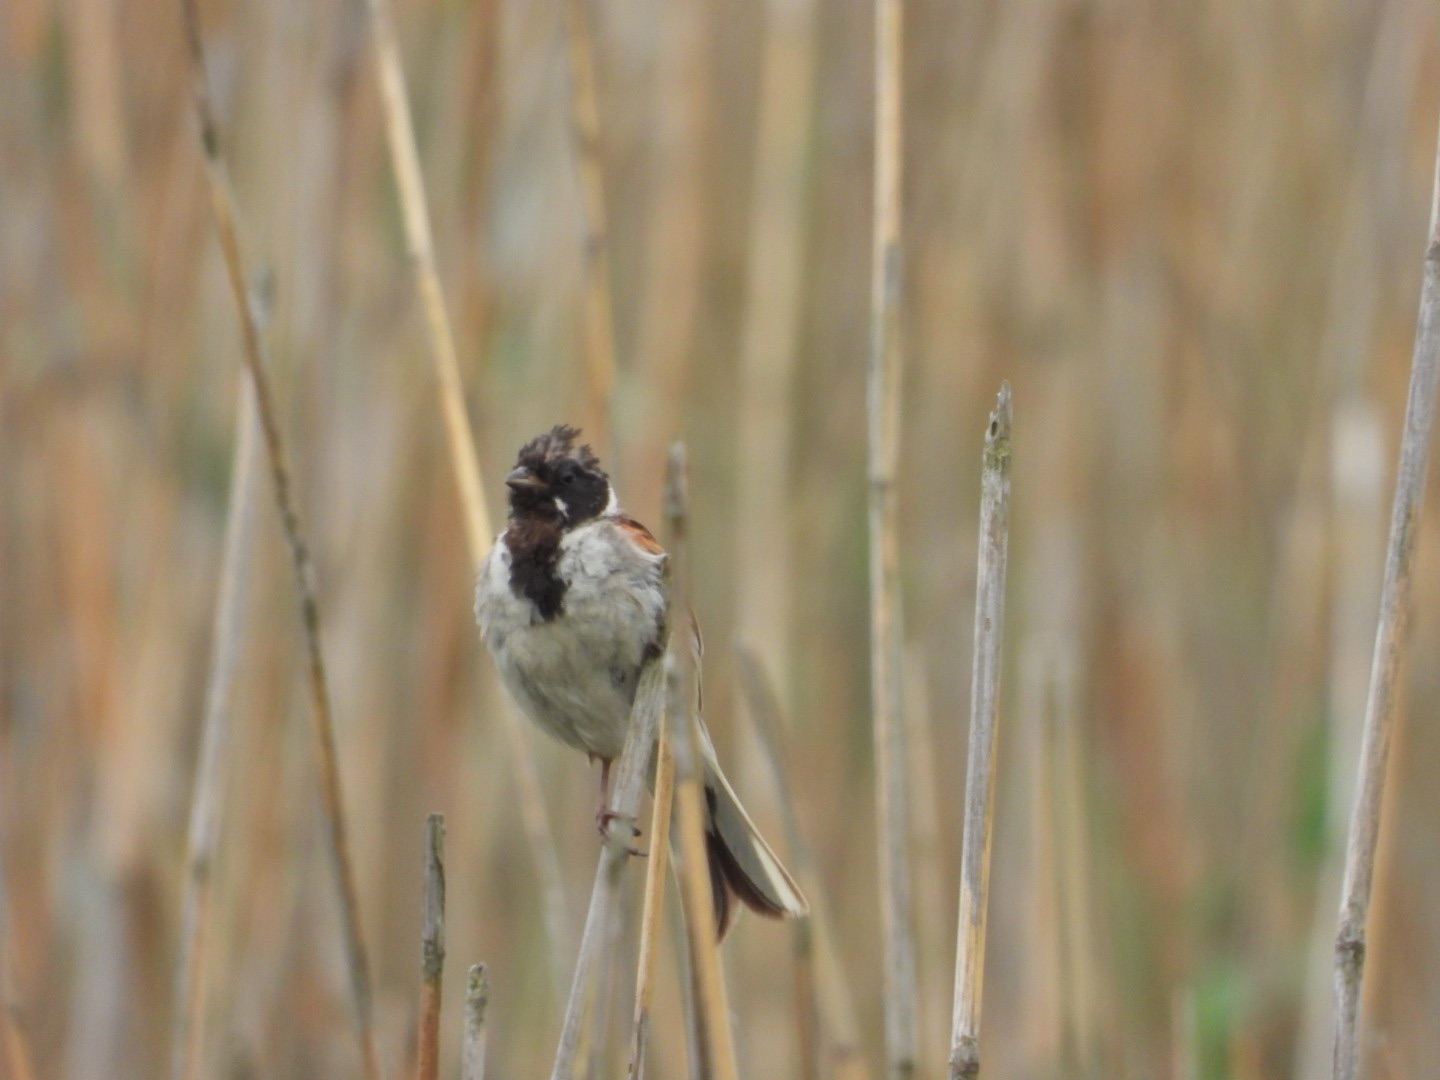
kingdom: Animalia
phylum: Chordata
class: Aves
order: Passeriformes
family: Emberizidae
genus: Emberiza
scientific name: Emberiza schoeniclus
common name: Rørspurv
